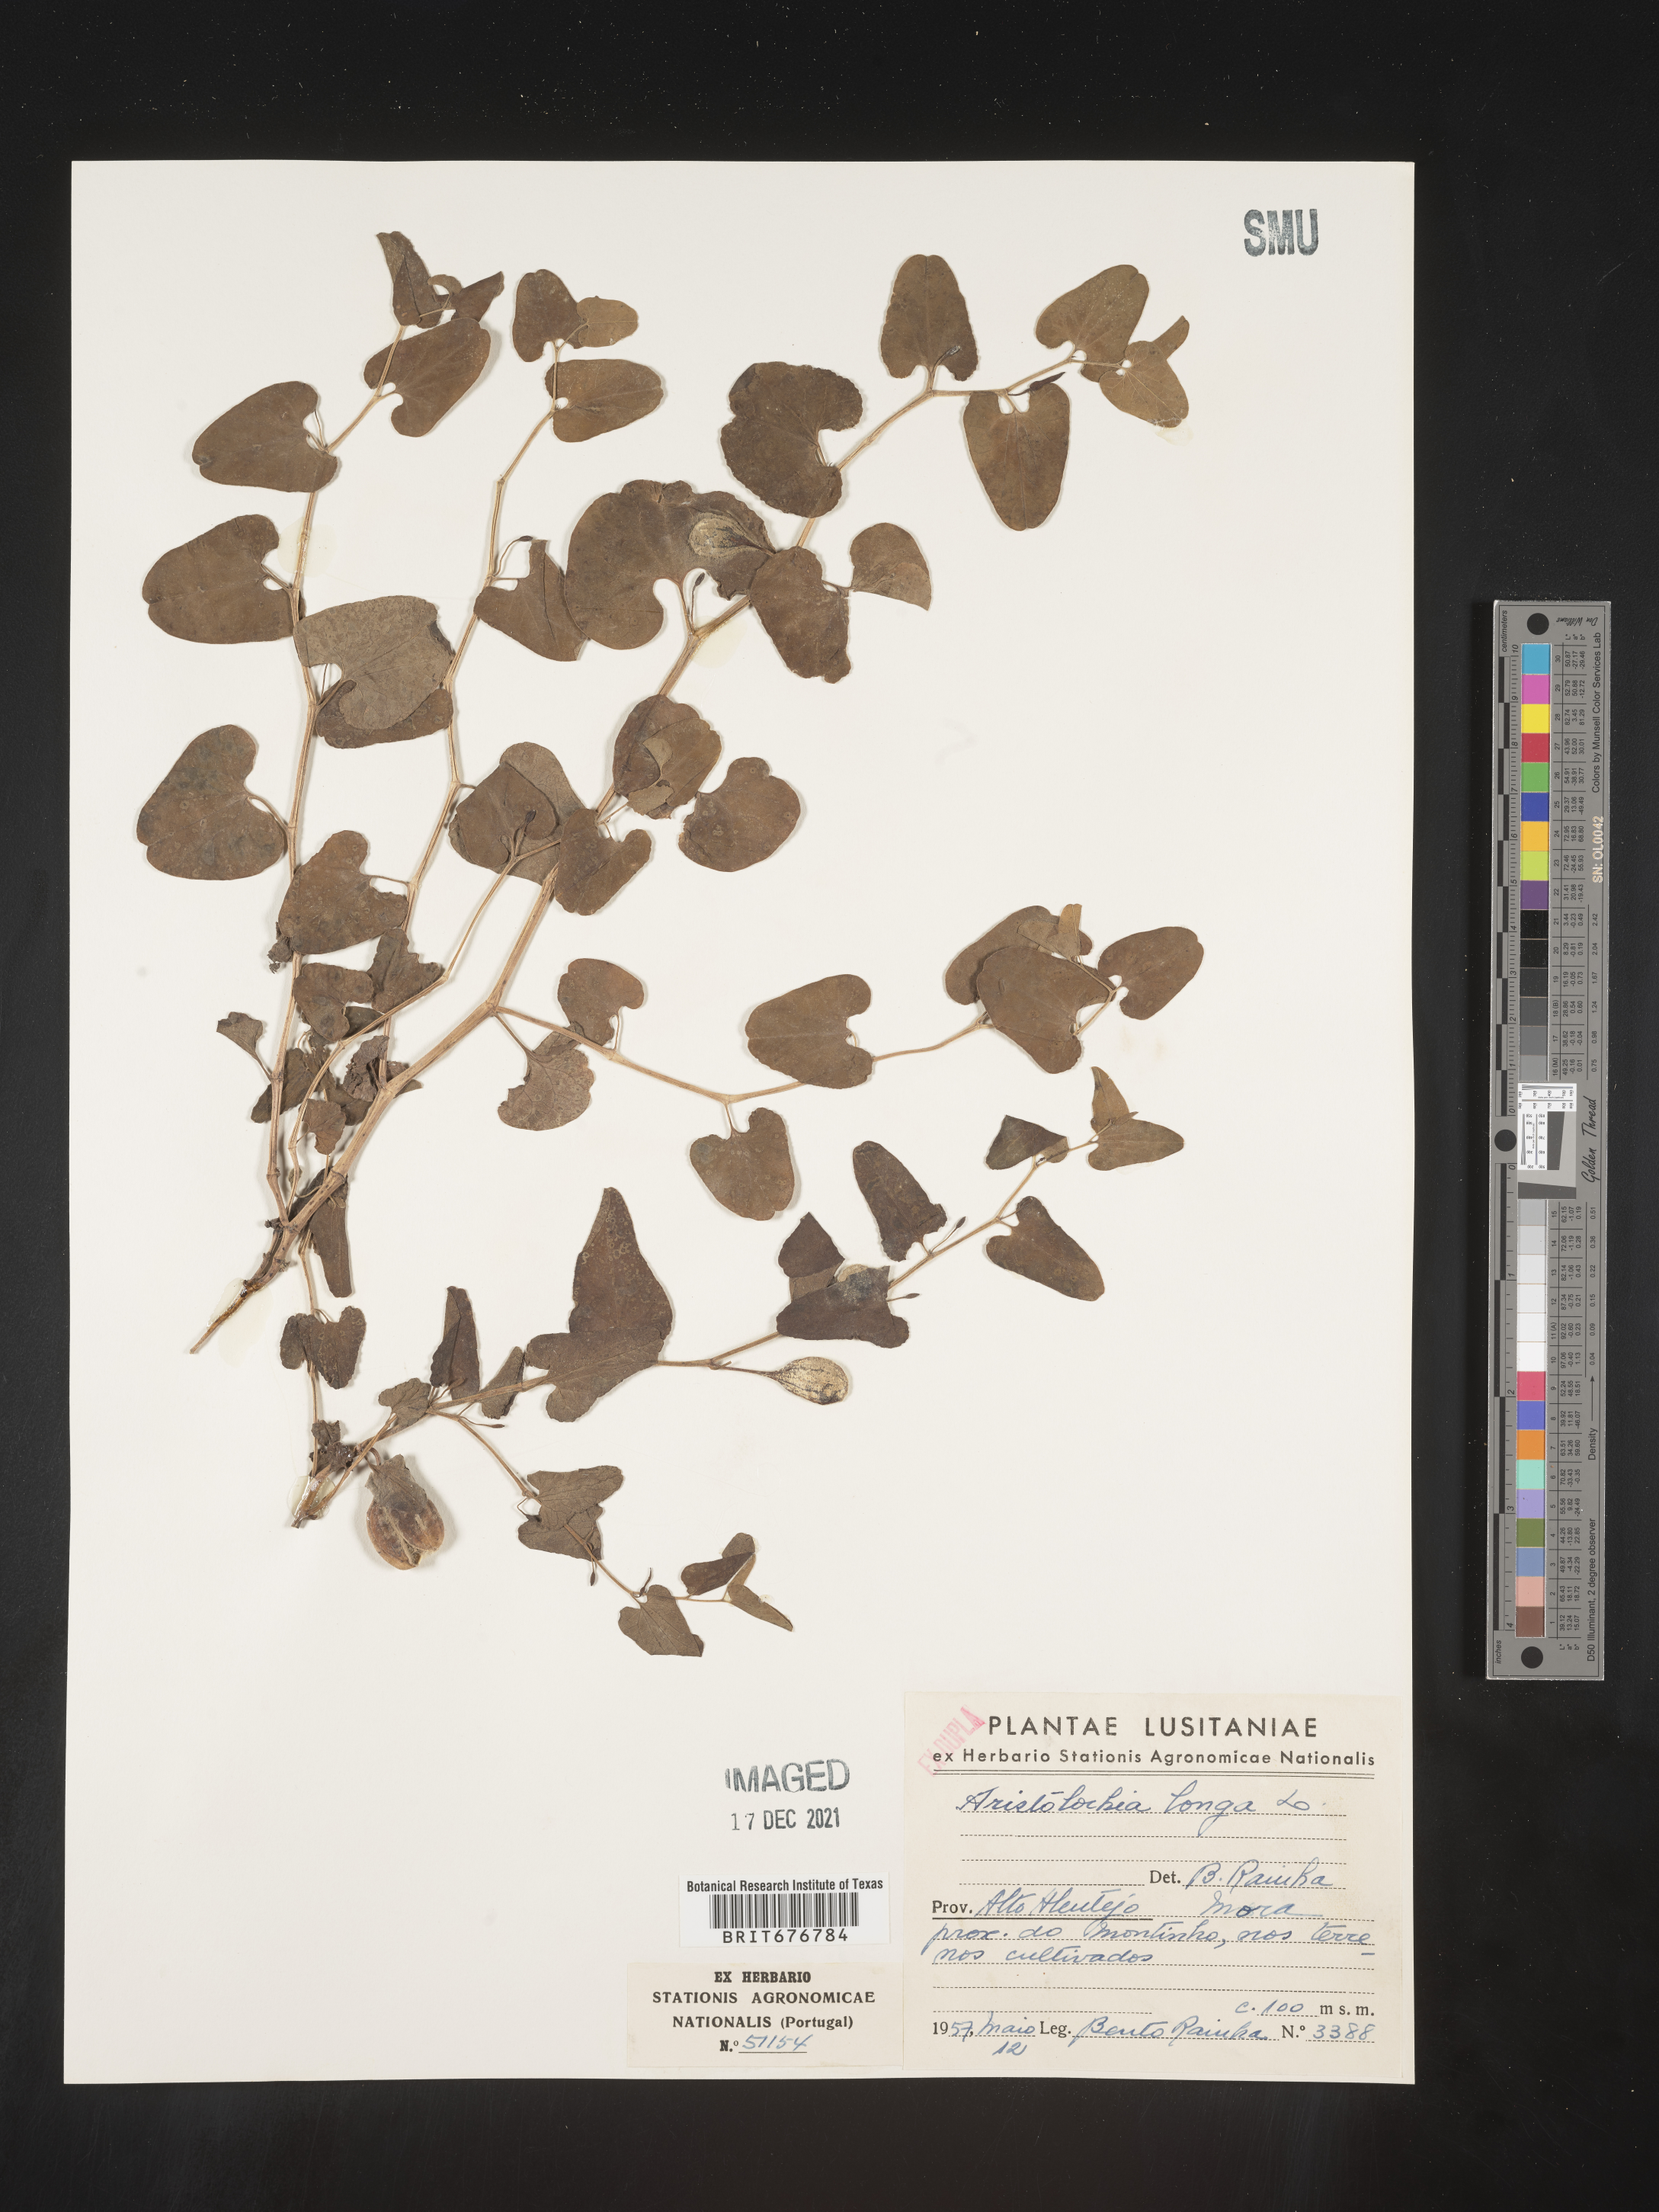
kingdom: Plantae
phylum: Tracheophyta
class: Magnoliopsida
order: Piperales
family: Aristolochiaceae
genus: Aristolochia
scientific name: Aristolochia
